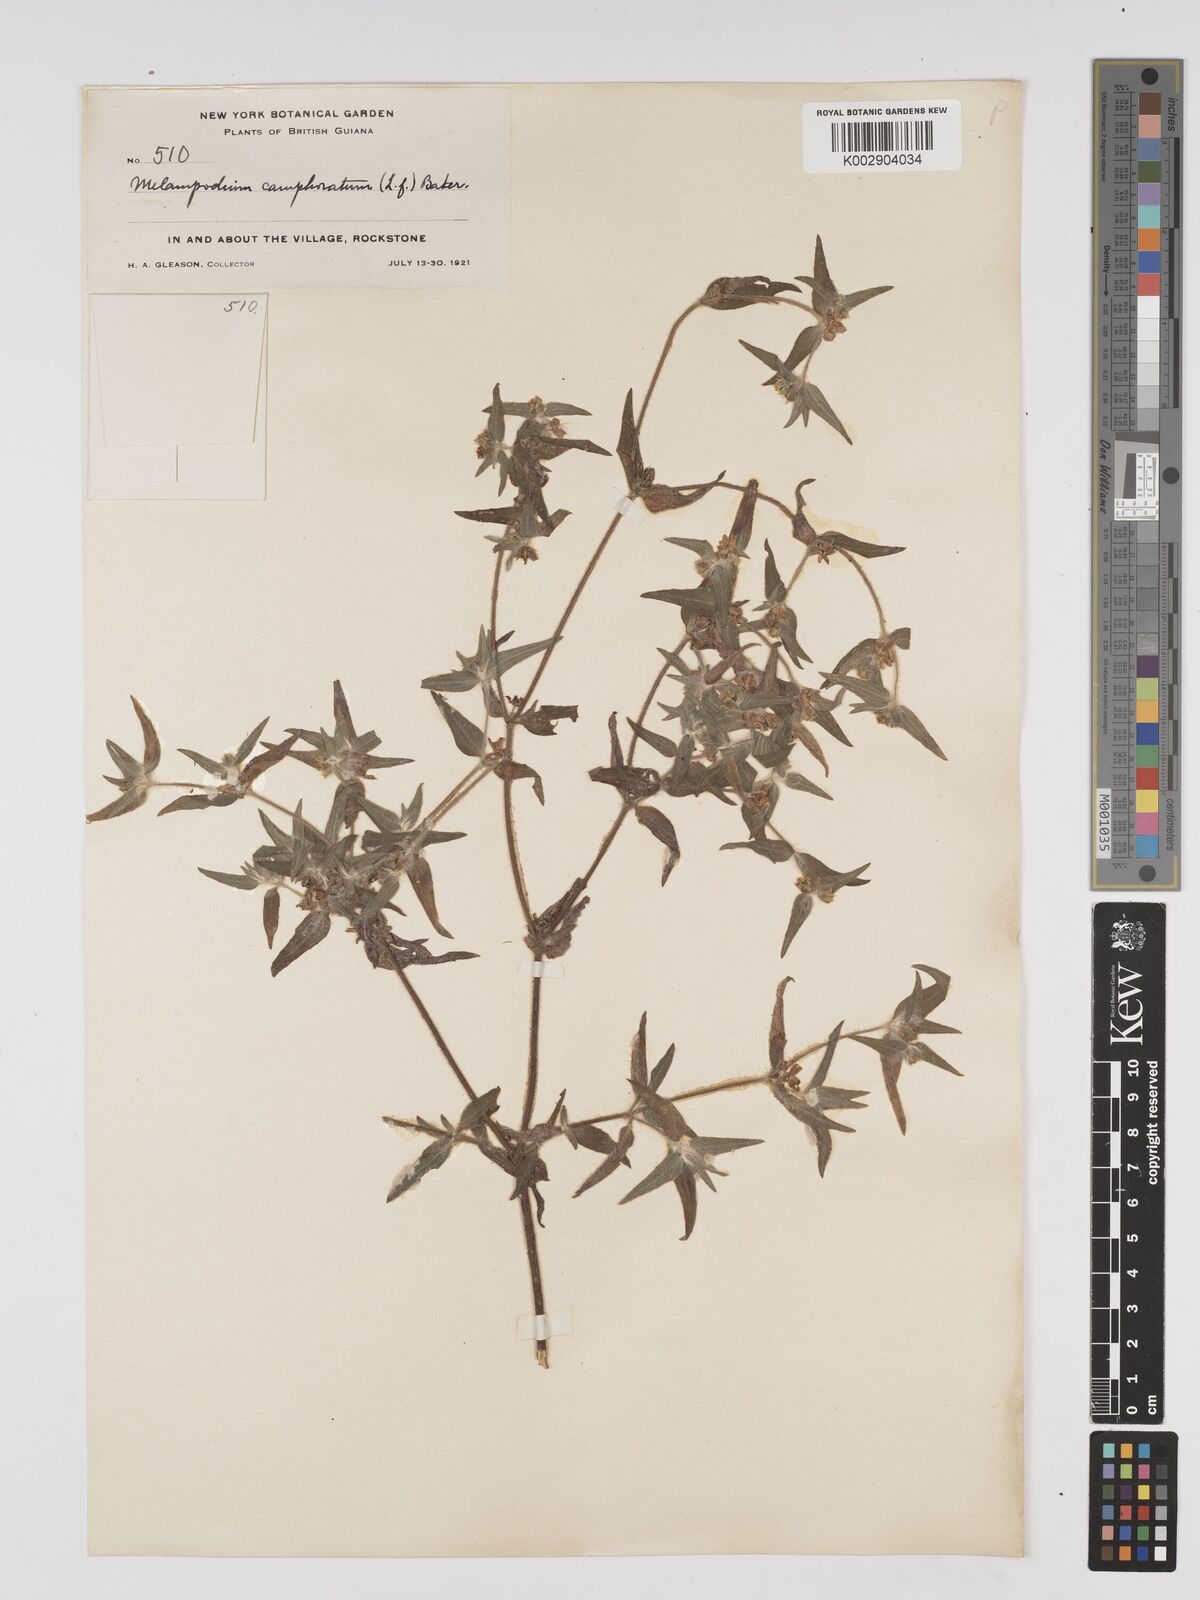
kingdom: Plantae
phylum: Tracheophyta
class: Magnoliopsida
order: Asterales
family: Asteraceae
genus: Unxia
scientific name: Unxia camphorata
